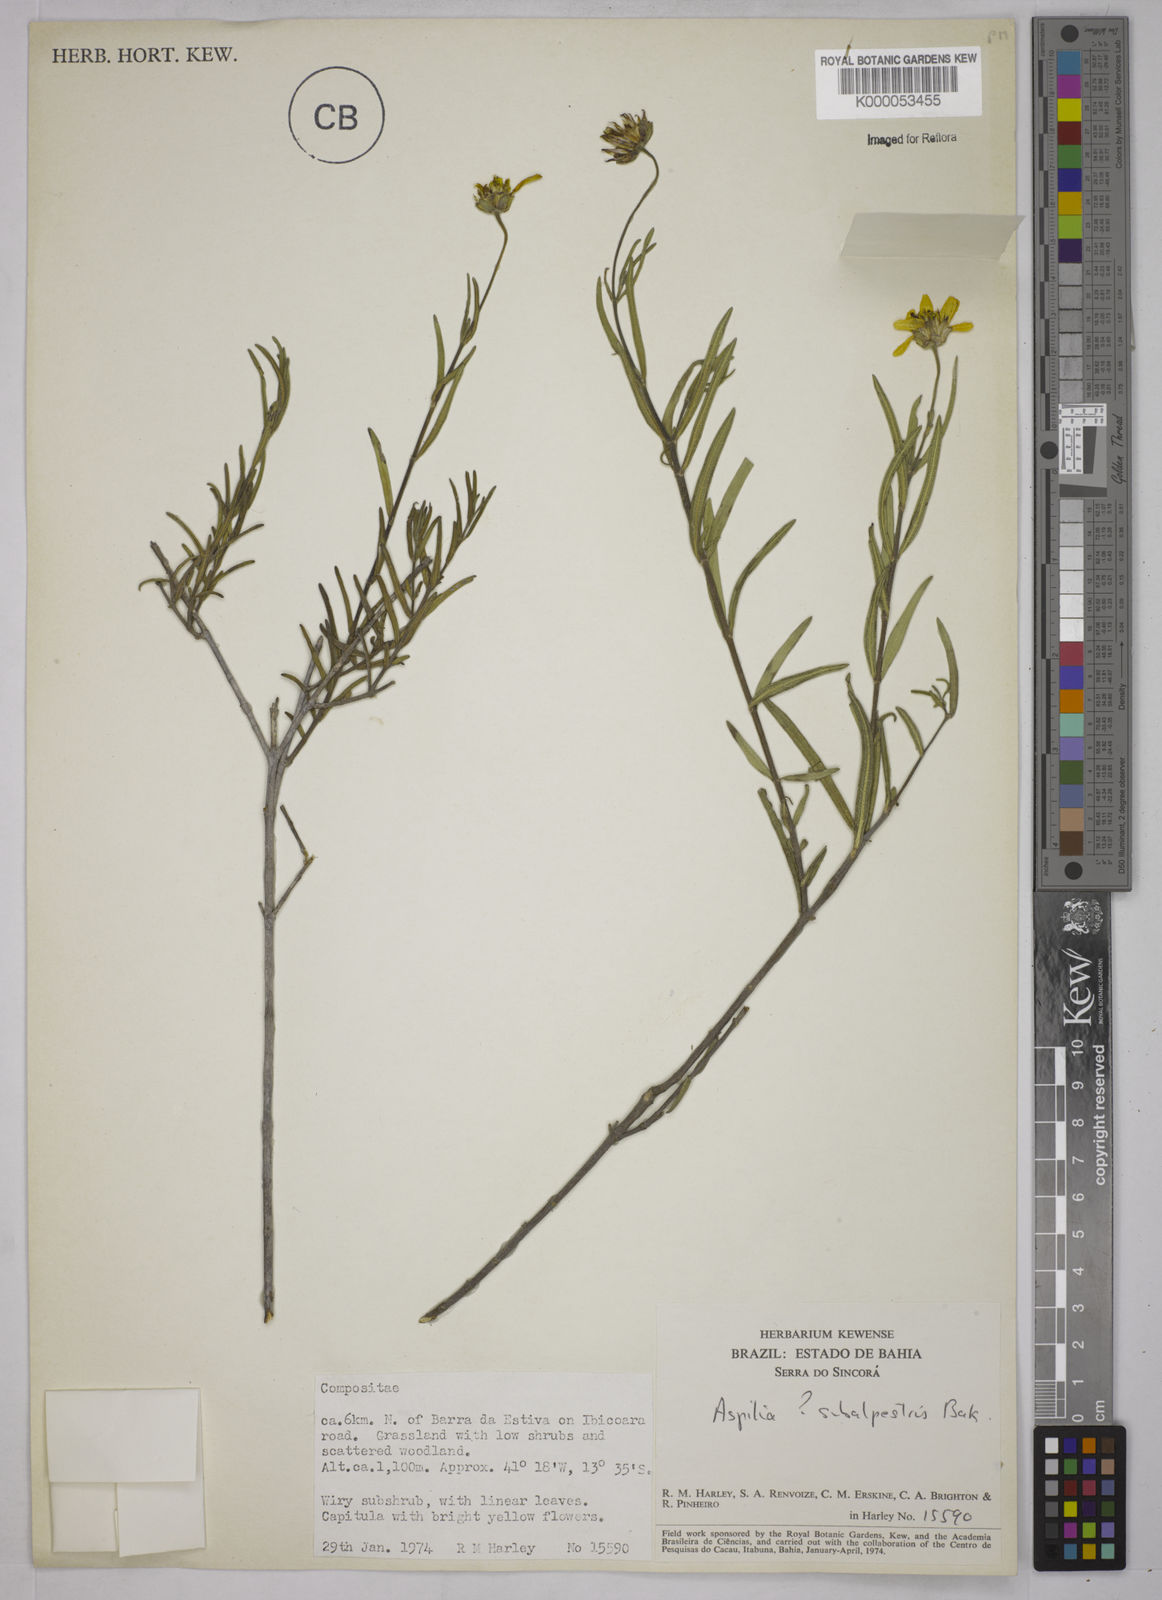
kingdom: Plantae
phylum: Tracheophyta
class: Magnoliopsida
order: Asterales
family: Asteraceae
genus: Aspilia
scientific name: Aspilia
